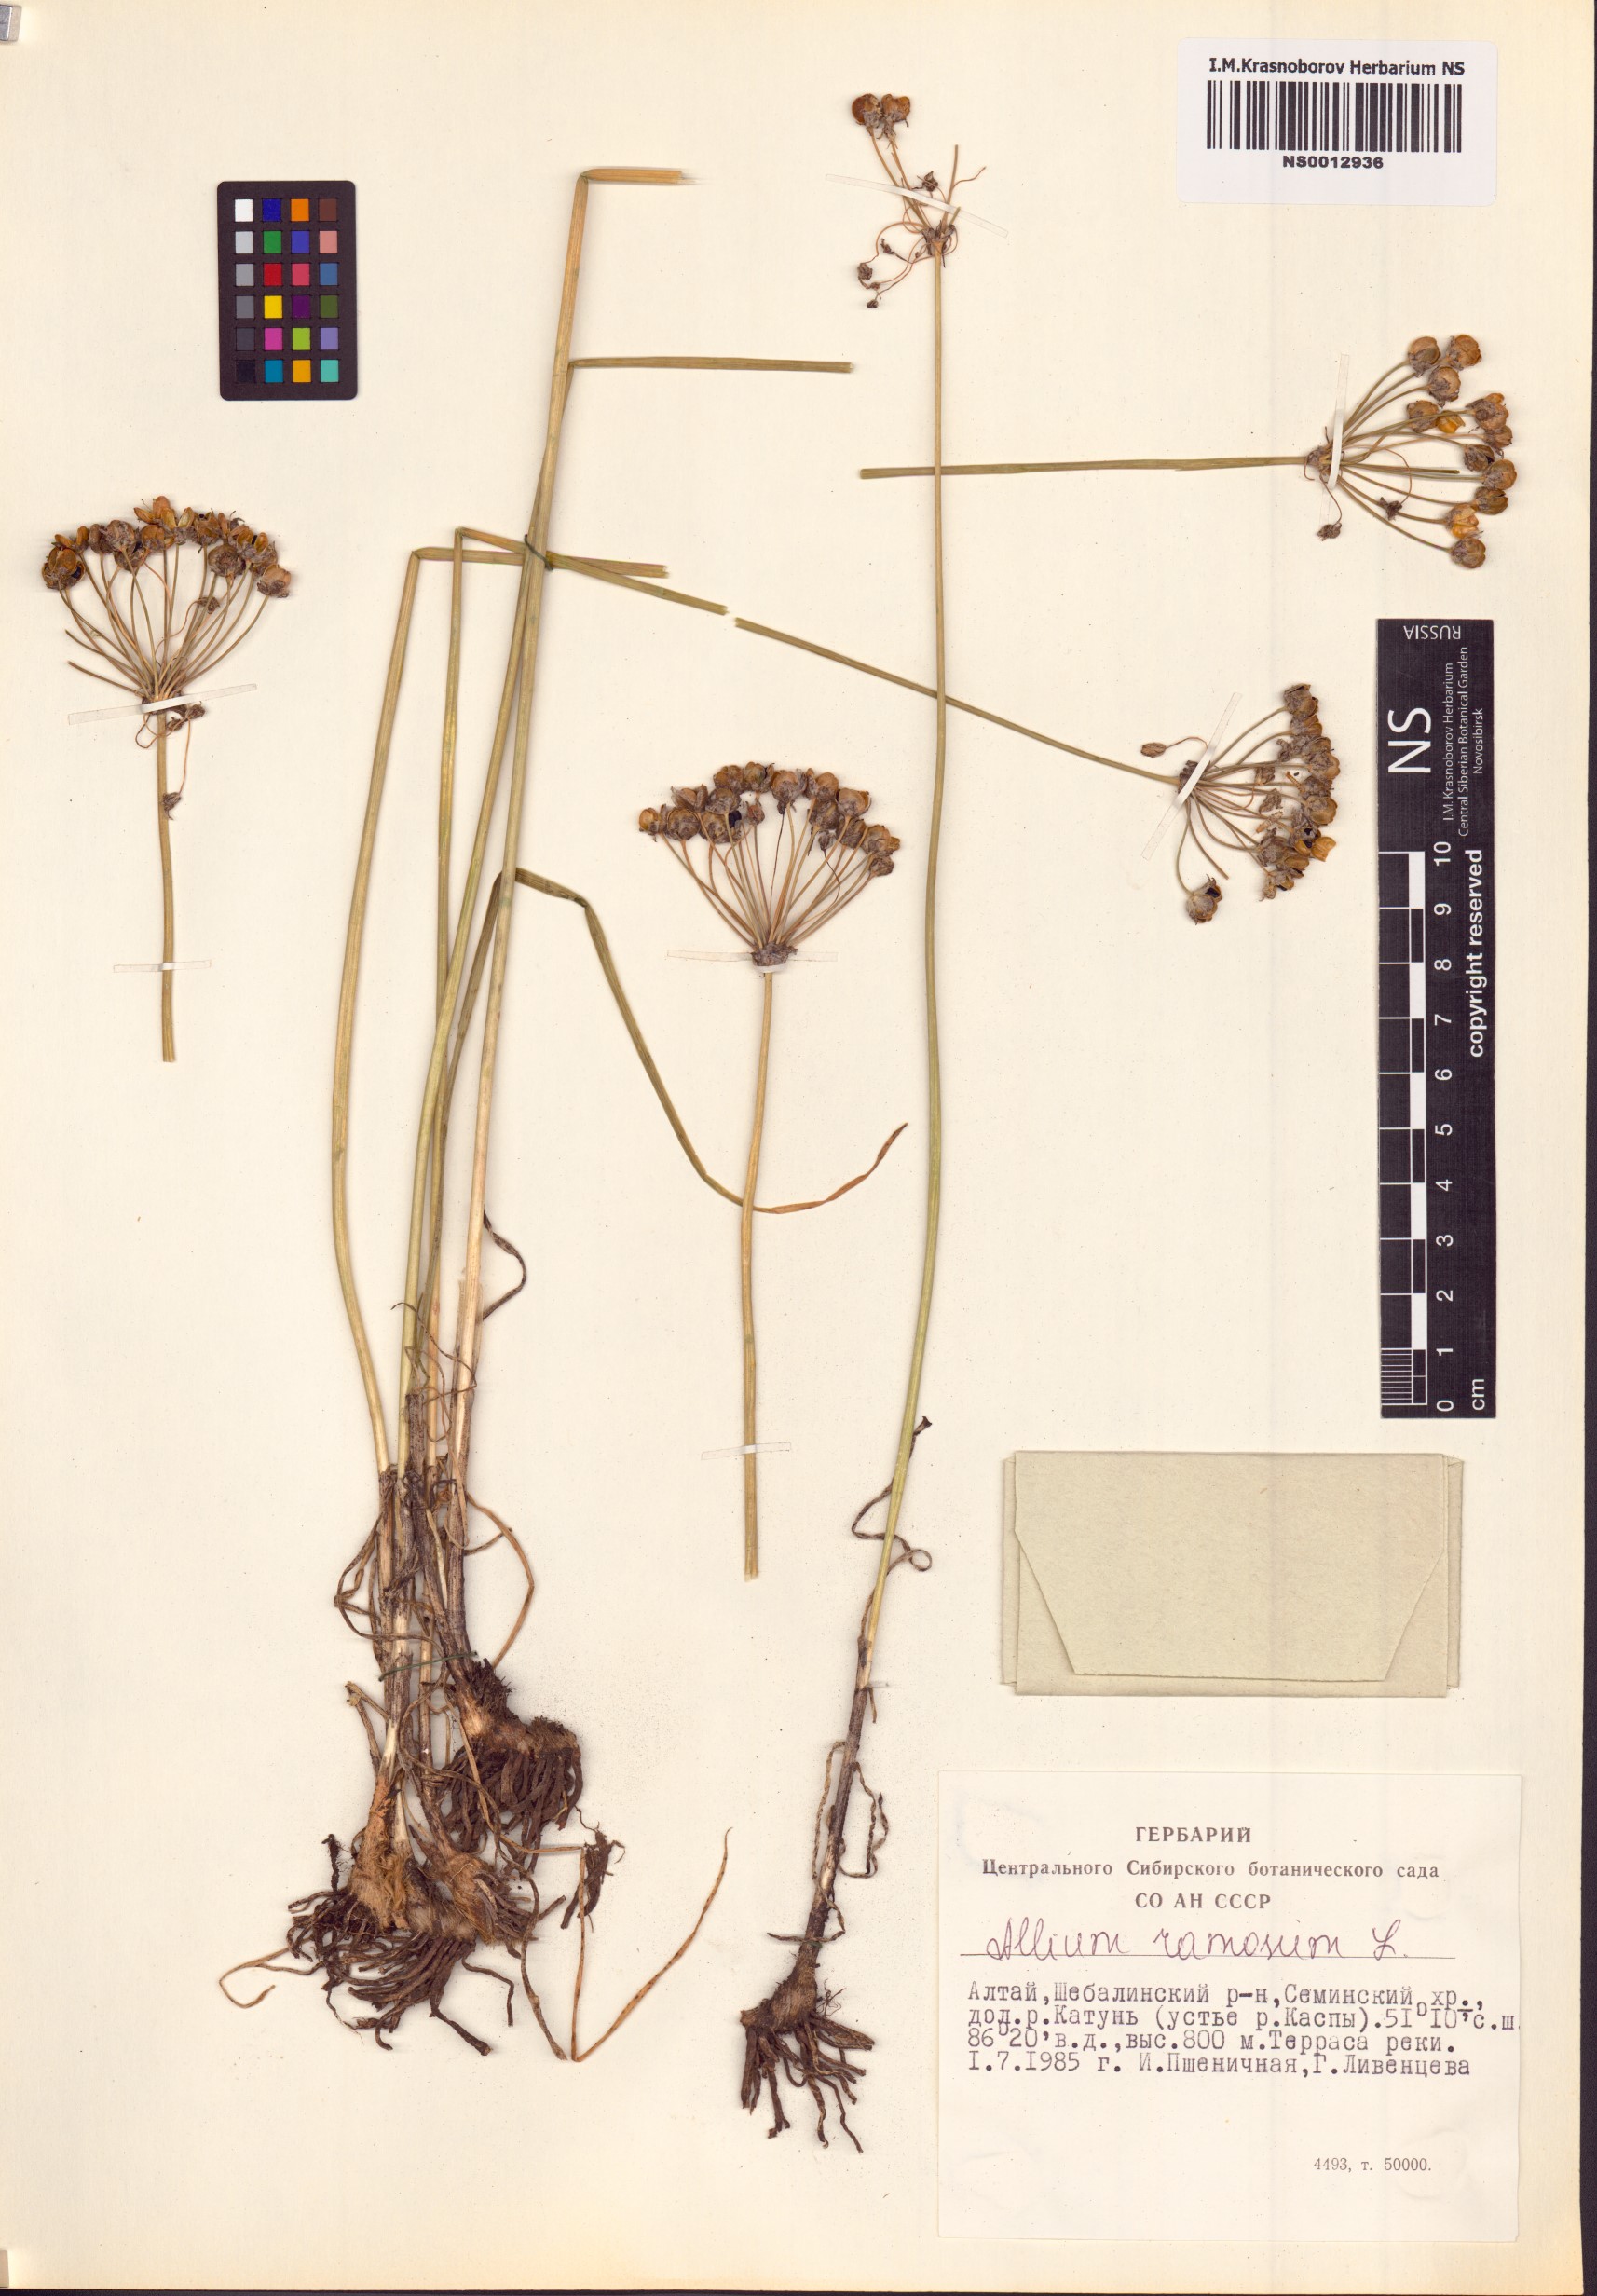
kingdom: Plantae
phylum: Tracheophyta
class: Liliopsida
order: Asparagales
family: Amaryllidaceae
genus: Allium
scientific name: Allium ramosum
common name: Fragrant garlic
